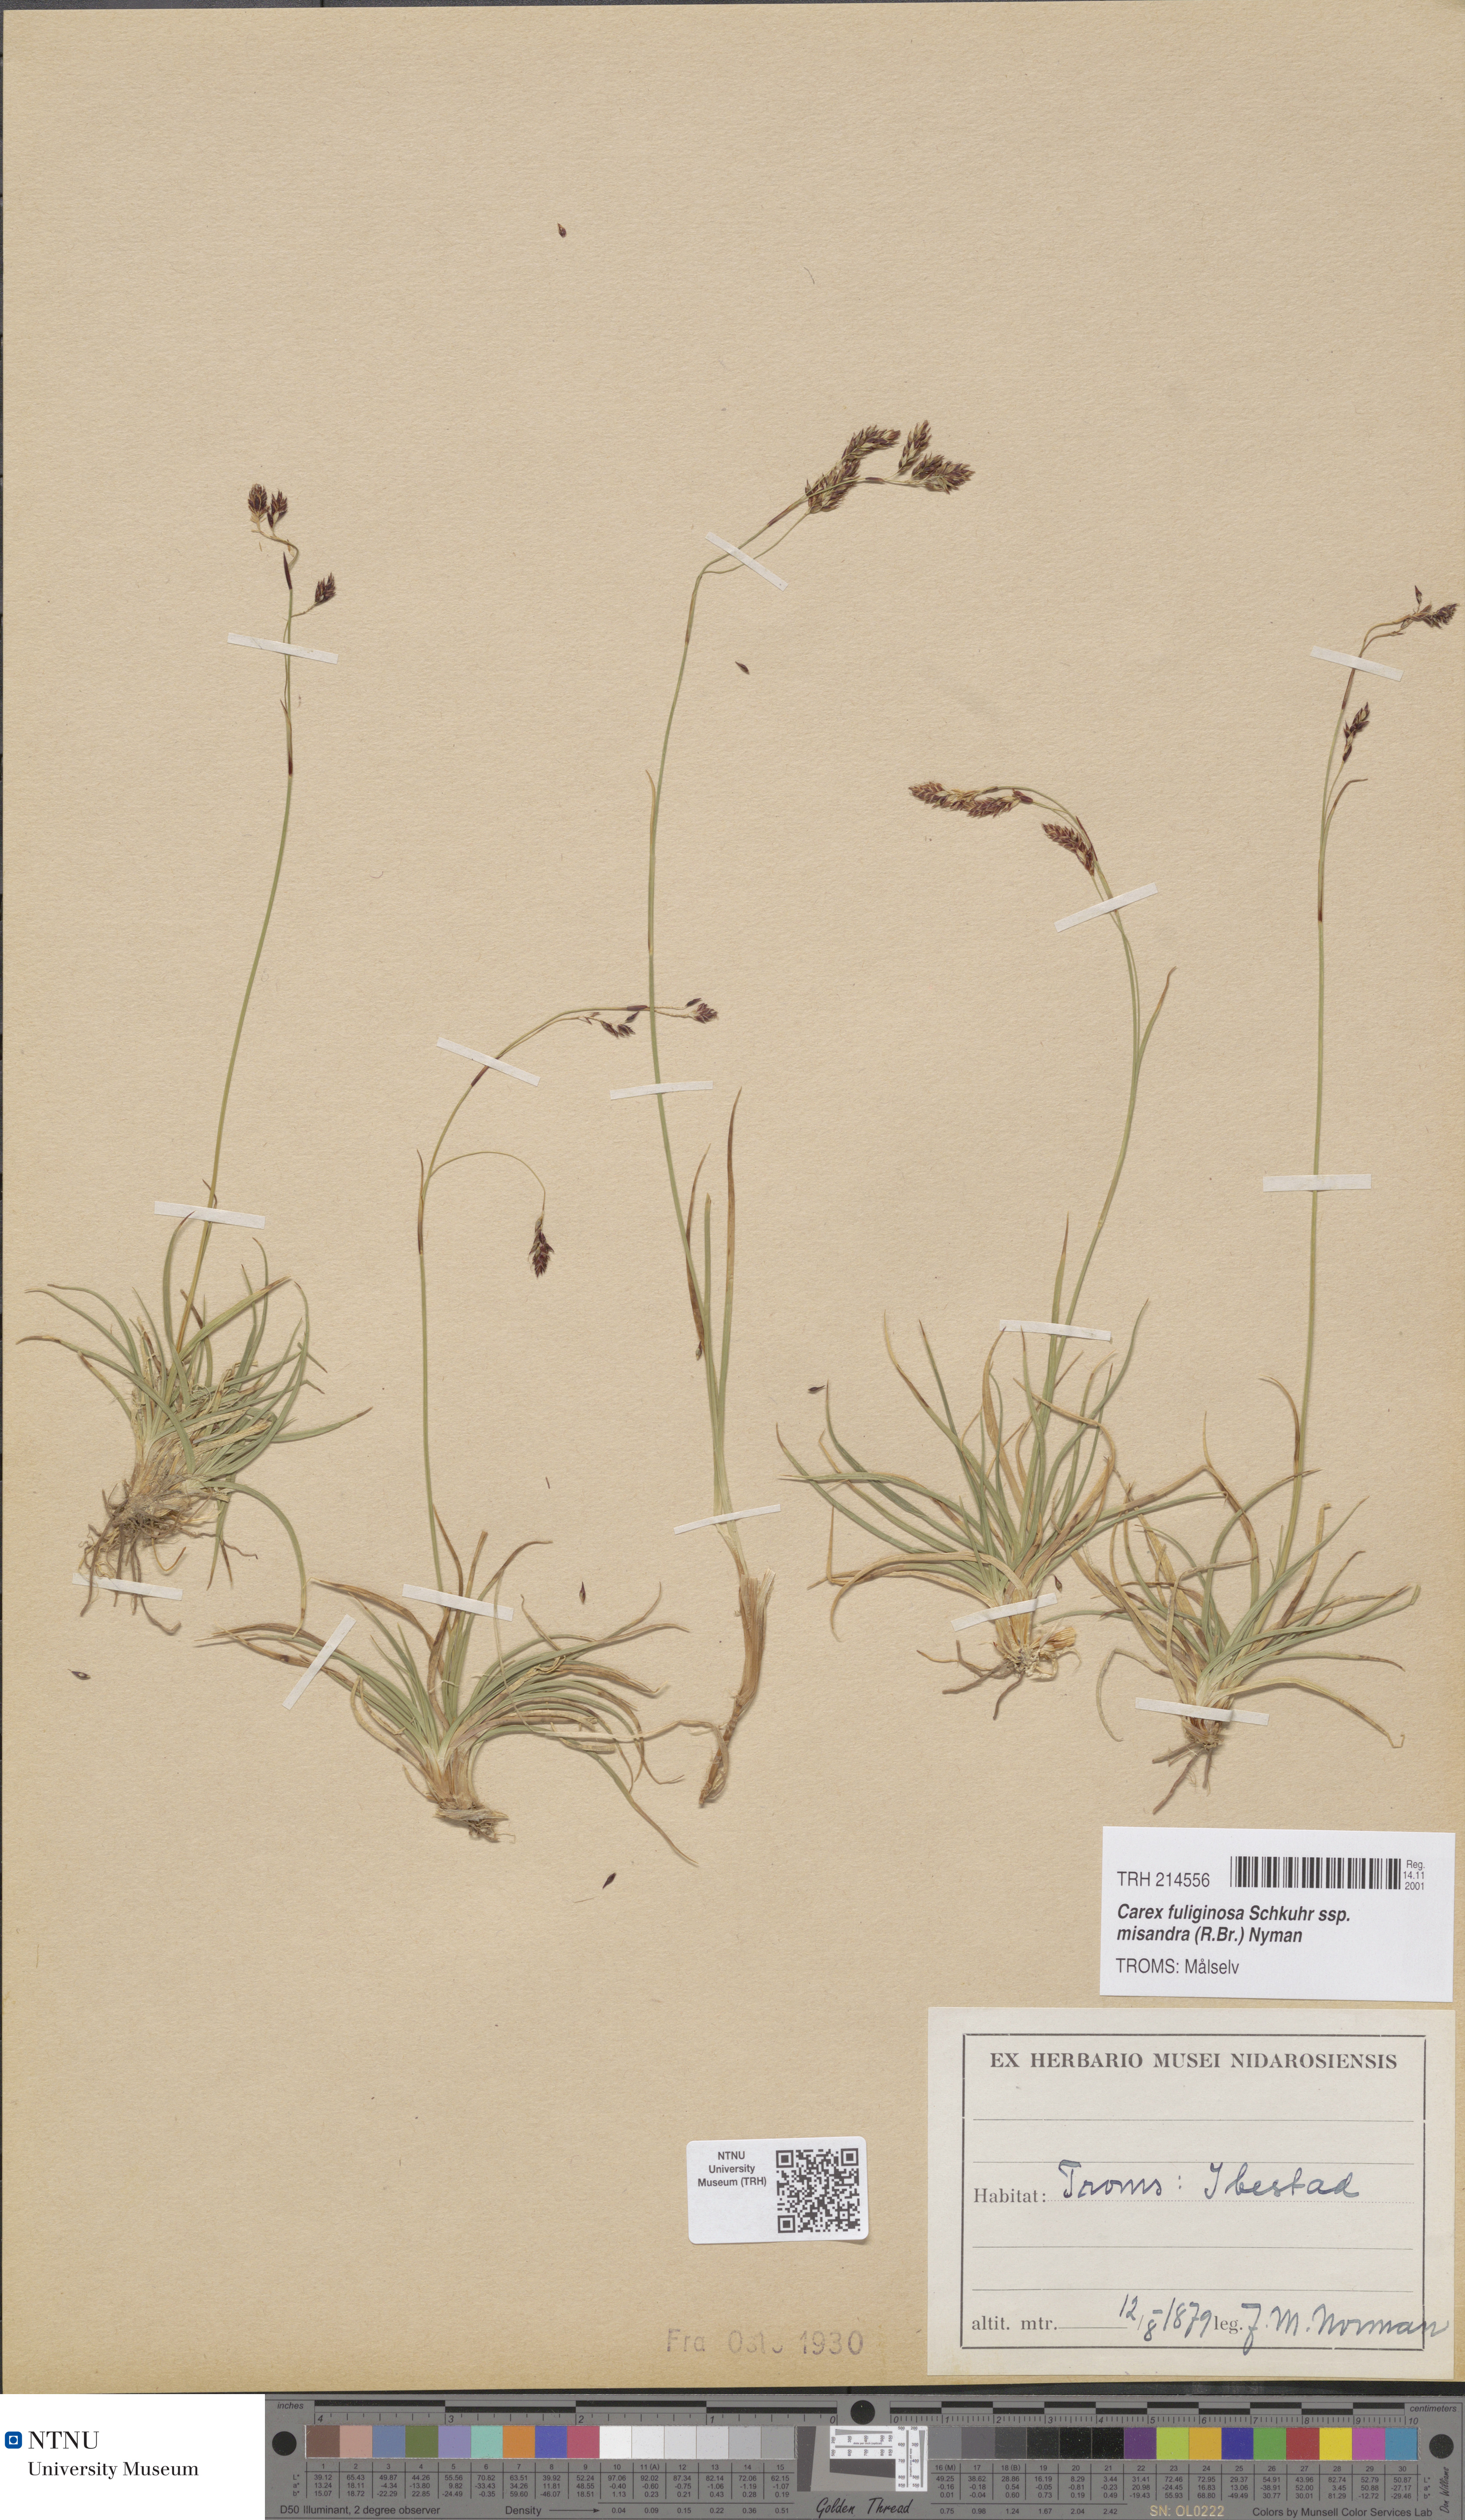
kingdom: Plantae
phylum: Tracheophyta
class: Liliopsida
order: Poales
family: Cyperaceae
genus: Carex
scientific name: Carex fuliginosa
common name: Few-flowered sedge
